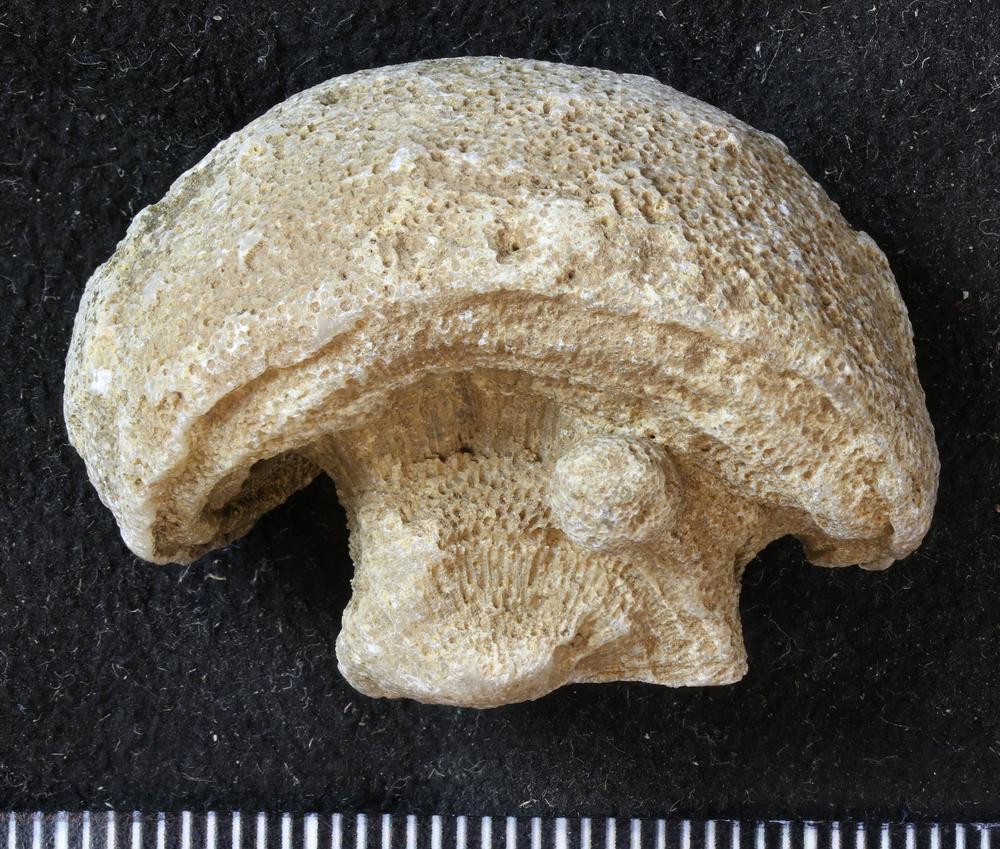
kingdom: Animalia
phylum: Cnidaria
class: Anthozoa
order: Heliolitina
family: Heliolitidae
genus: Heliolites
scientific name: Heliolites
